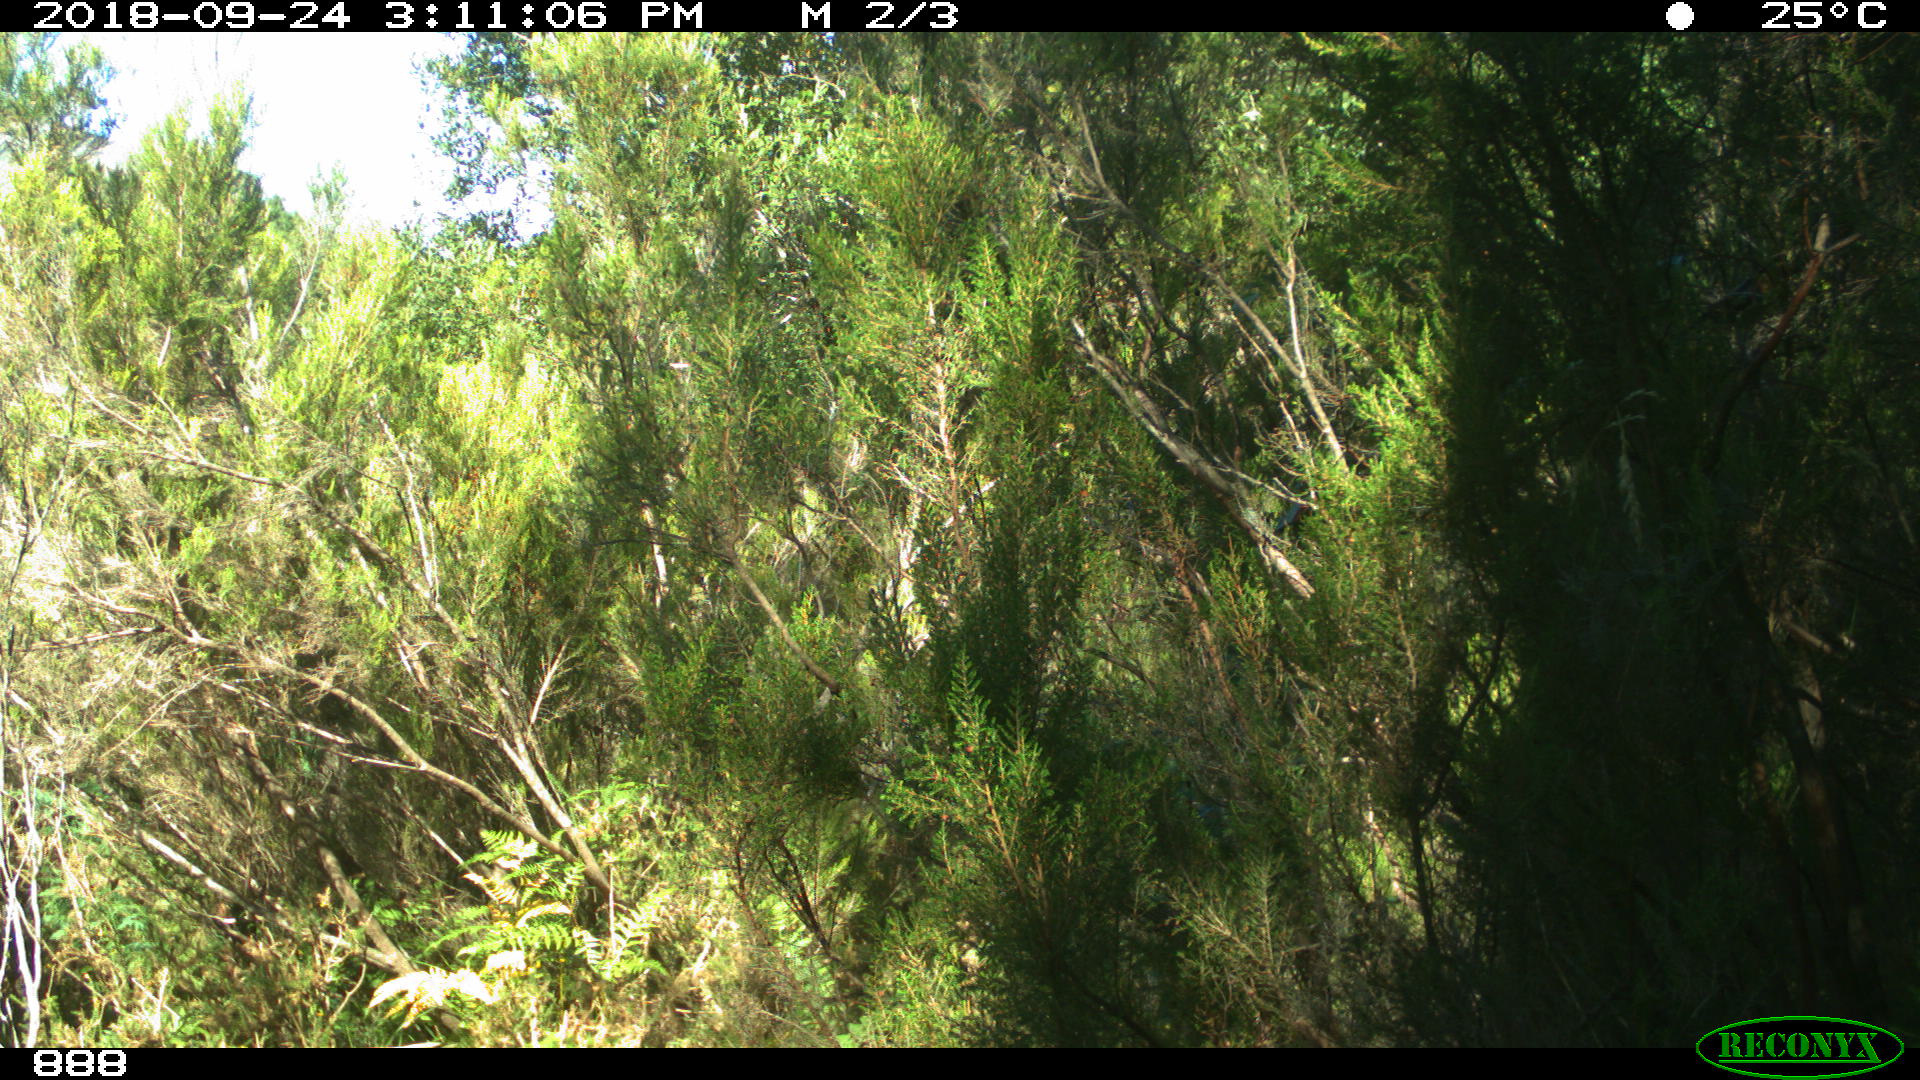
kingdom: Animalia
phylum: Chordata
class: Mammalia
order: Artiodactyla
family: Bovidae
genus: Bos
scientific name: Bos taurus
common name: Domesticated cattle
